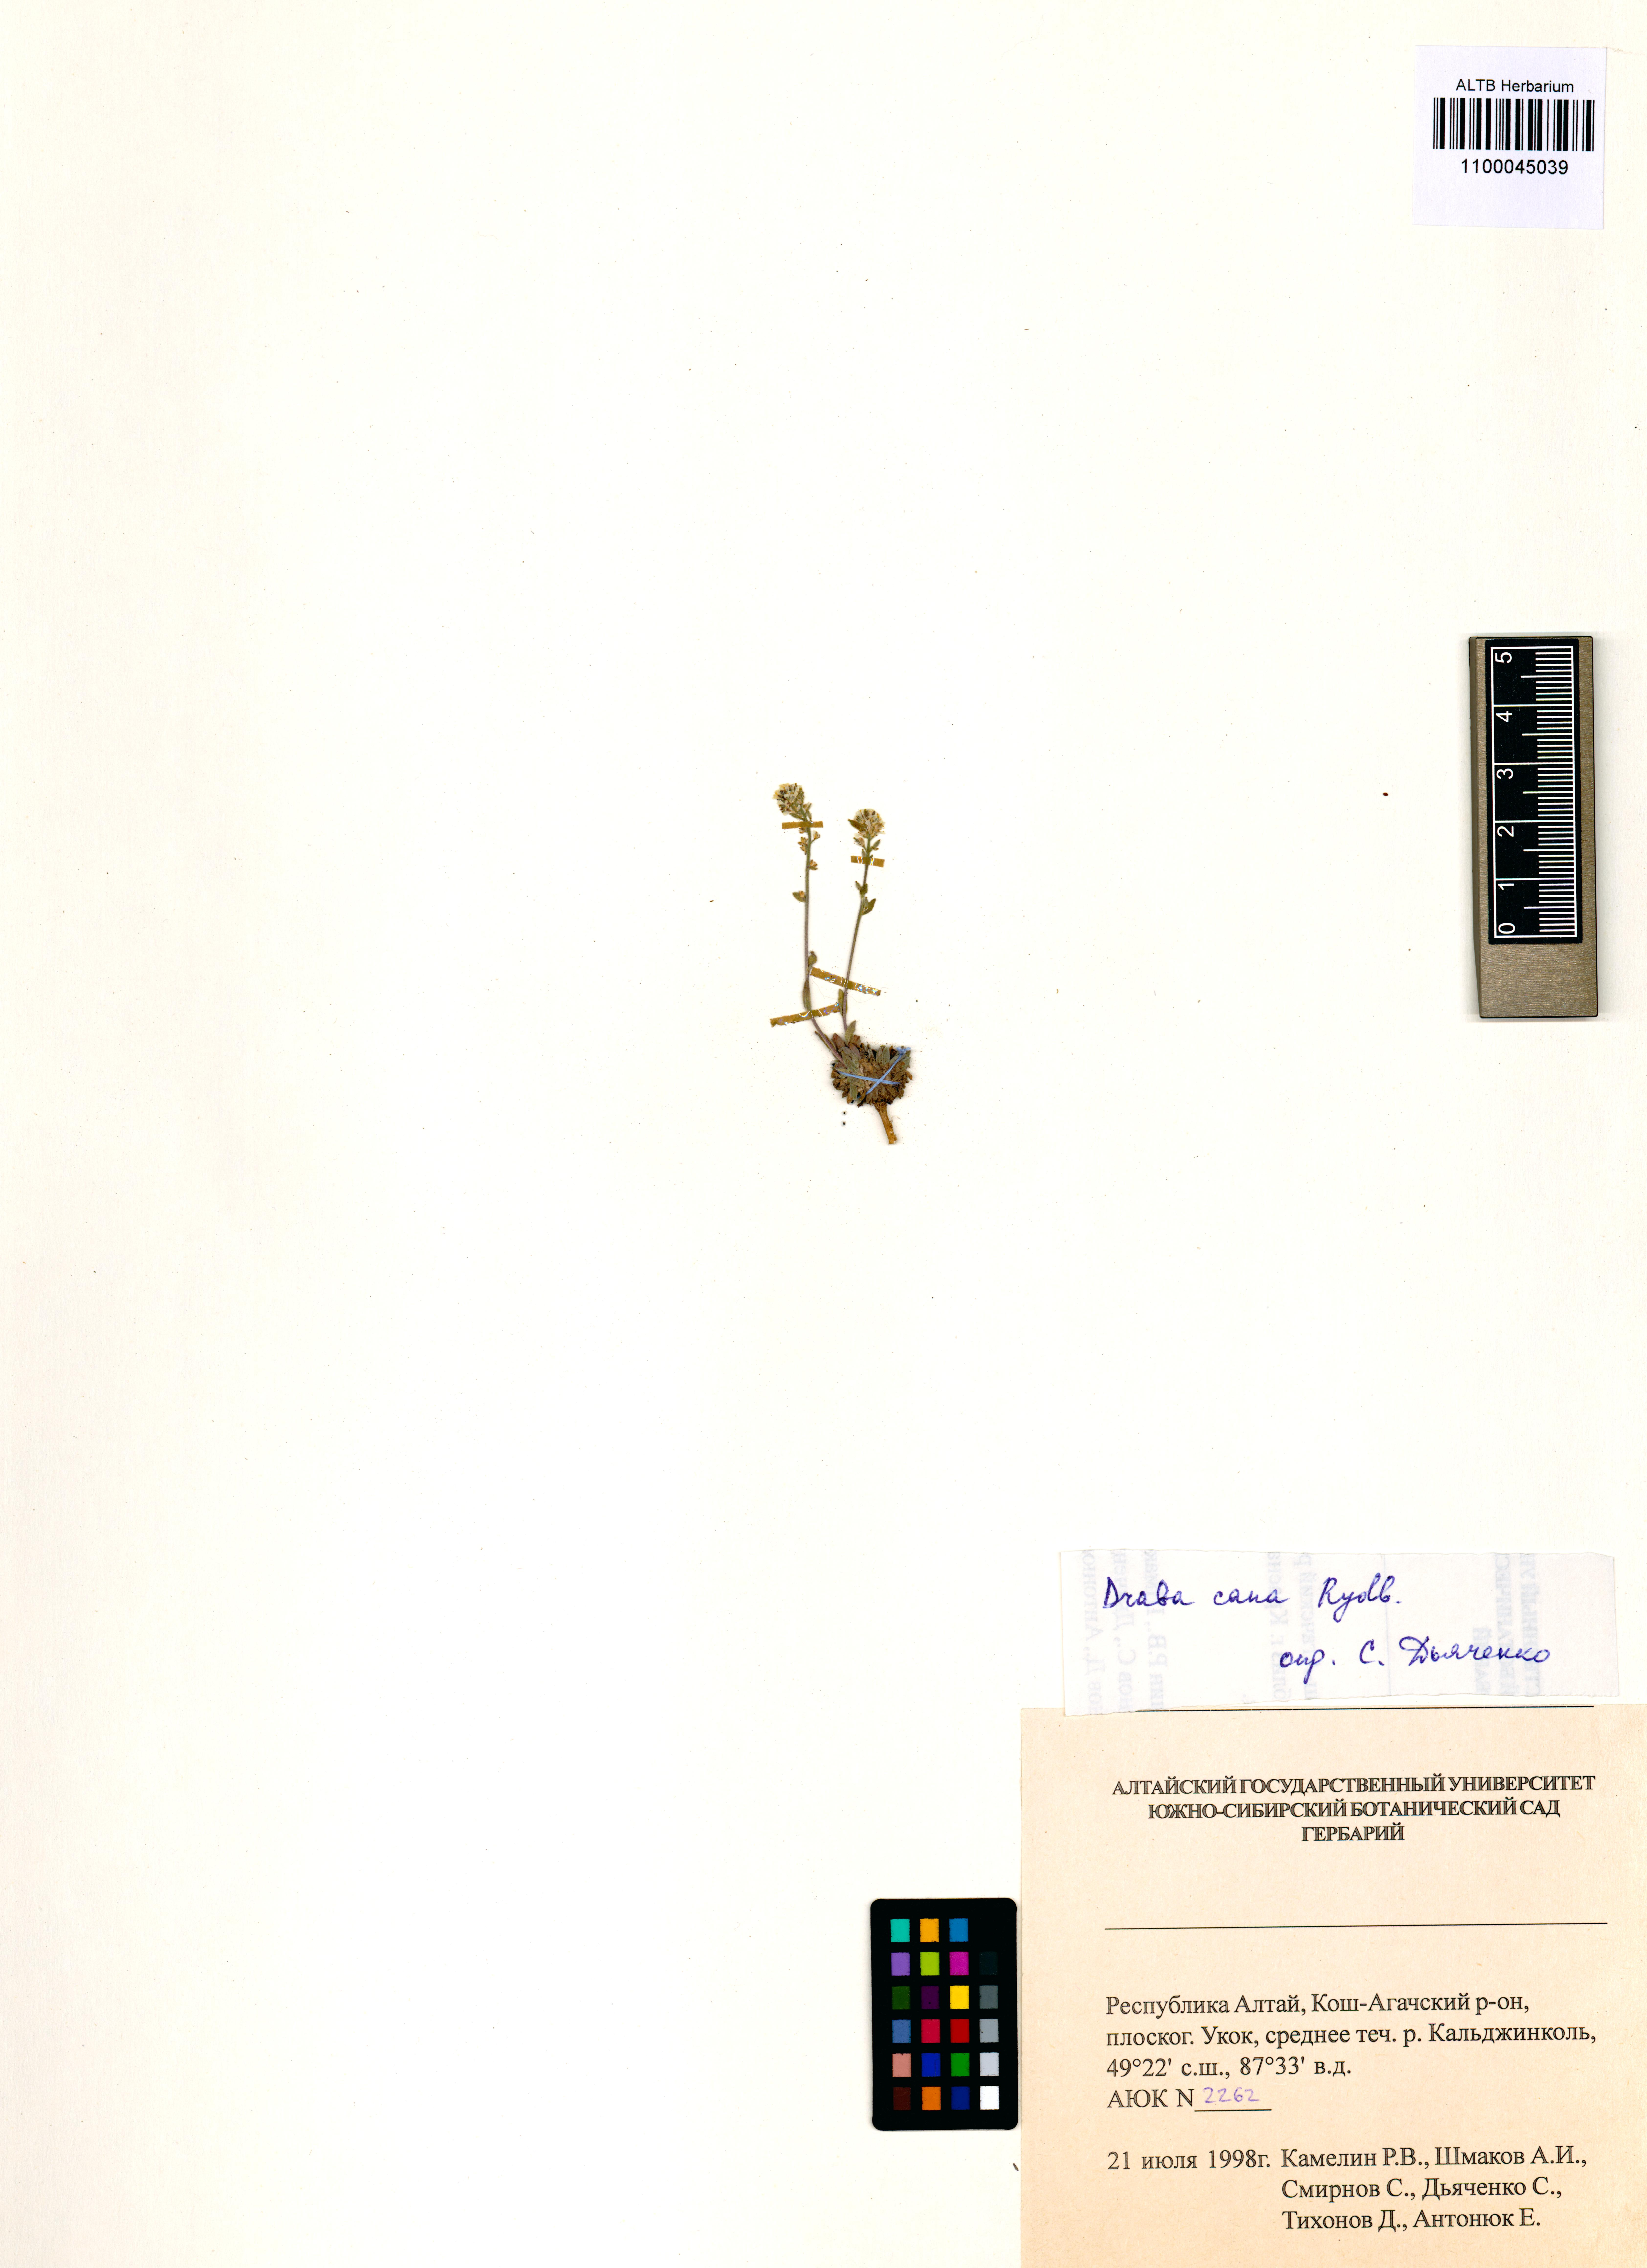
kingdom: Plantae
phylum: Tracheophyta
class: Magnoliopsida
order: Brassicales
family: Brassicaceae
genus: Draba
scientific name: Draba cana
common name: Hoary draba
